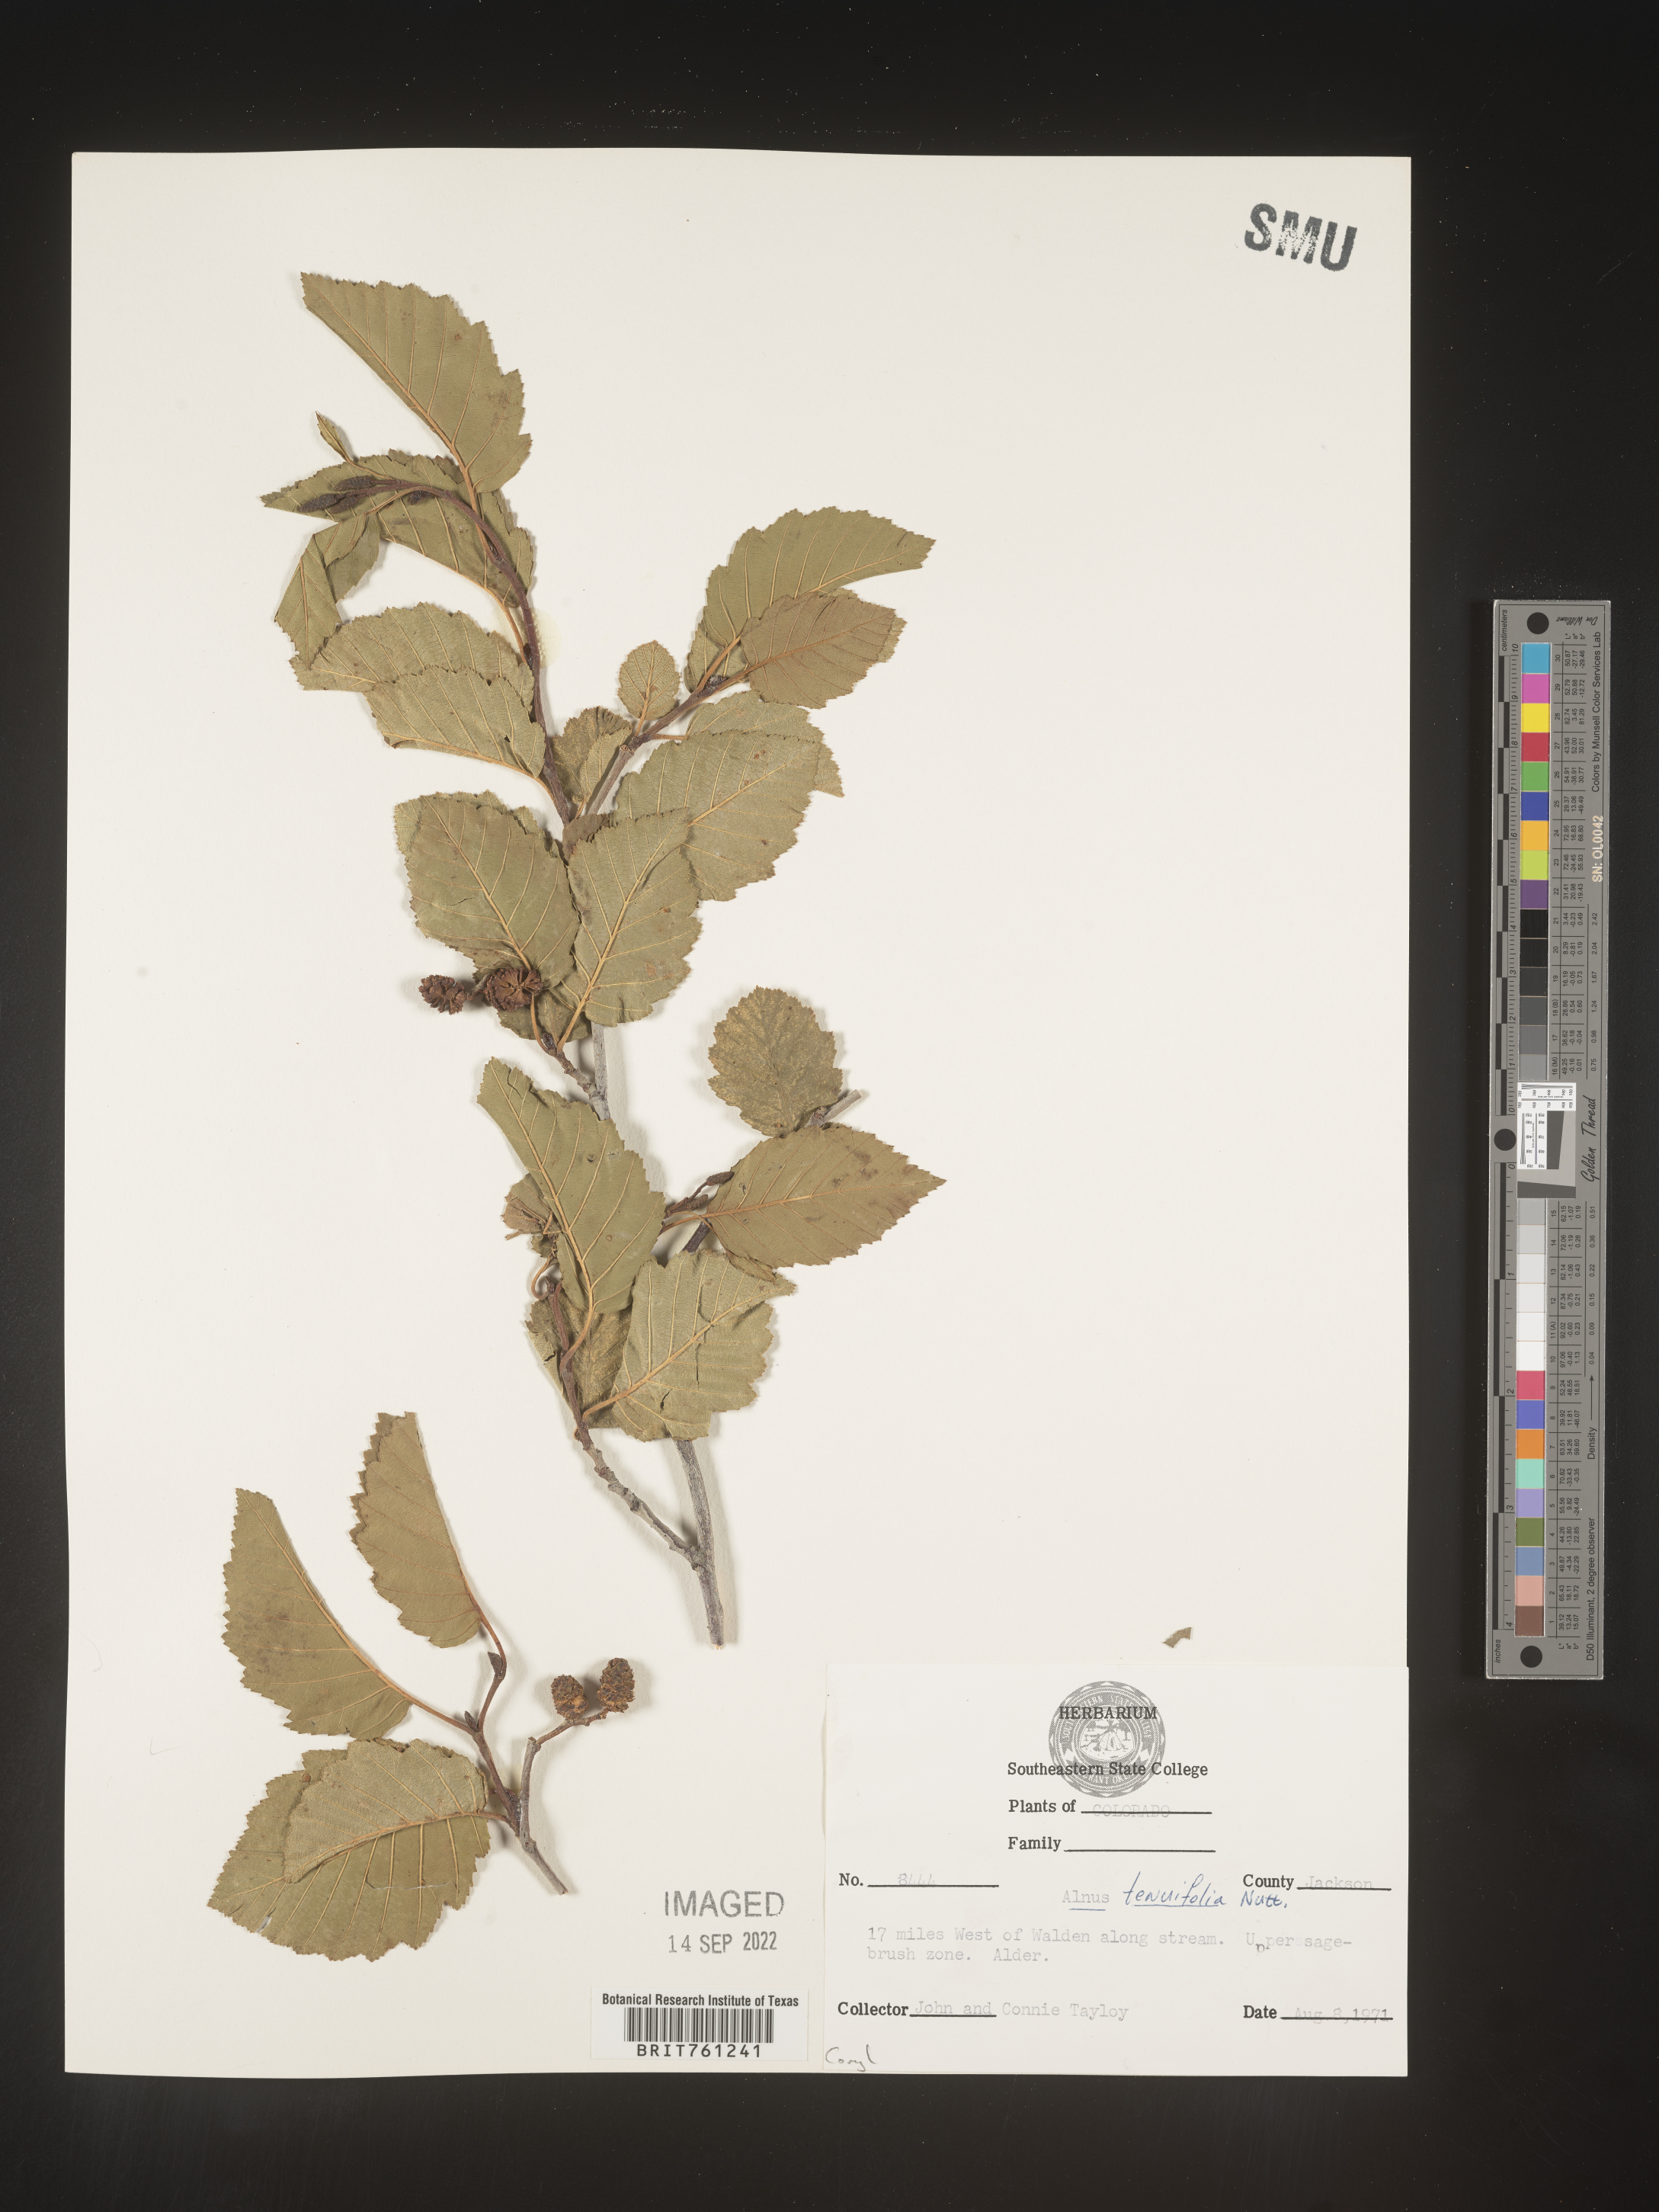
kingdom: Plantae
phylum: Tracheophyta
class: Magnoliopsida
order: Fagales
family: Betulaceae
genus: Alnus
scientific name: Alnus incana
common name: Grey alder
